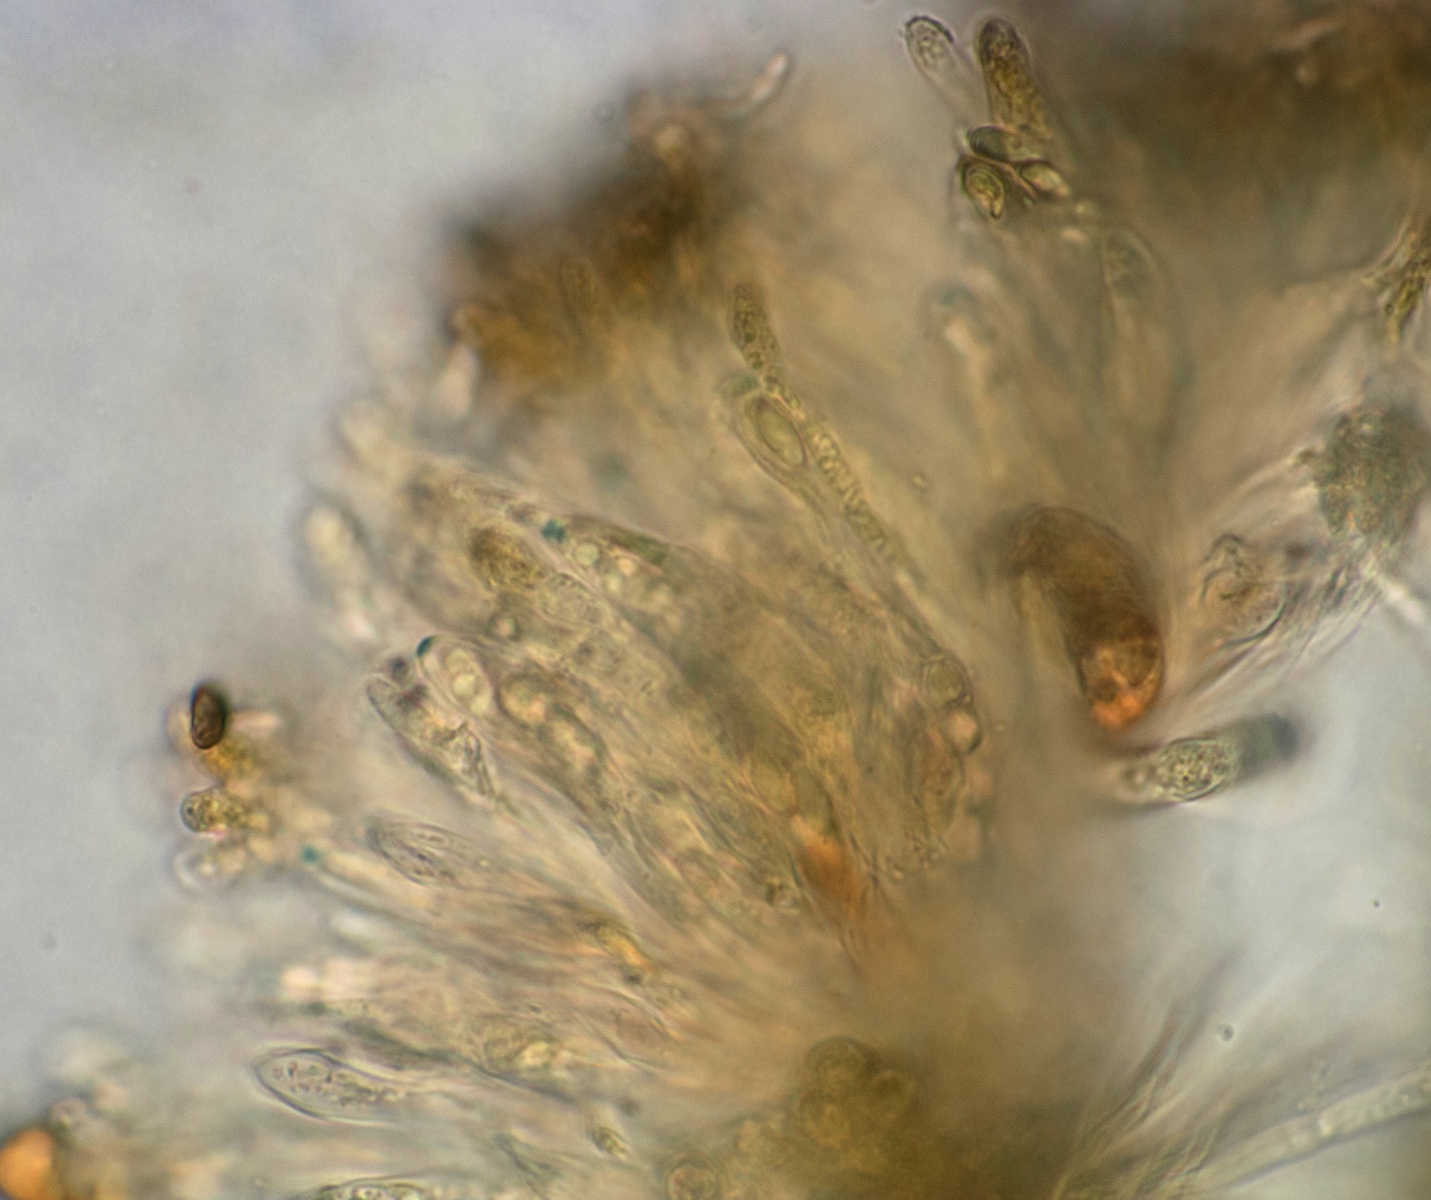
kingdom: Fungi
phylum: Ascomycota
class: Leotiomycetes
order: Helotiales
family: Cenangiaceae
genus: Trochila
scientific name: Trochila laurocerasi
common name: kirsebær-lågskive
